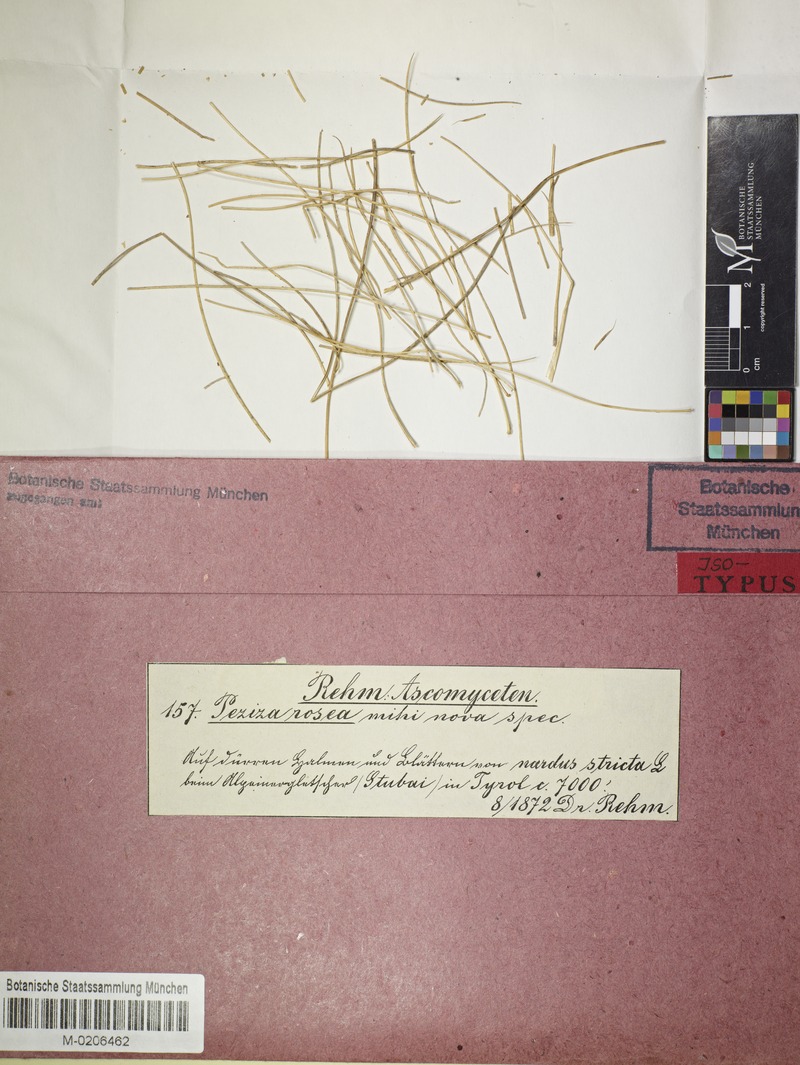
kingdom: Fungi
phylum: Ascomycota
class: Leotiomycetes
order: Helotiales
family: Lachnaceae
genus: Dasyscyphus
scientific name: Dasyscyphus roseus
